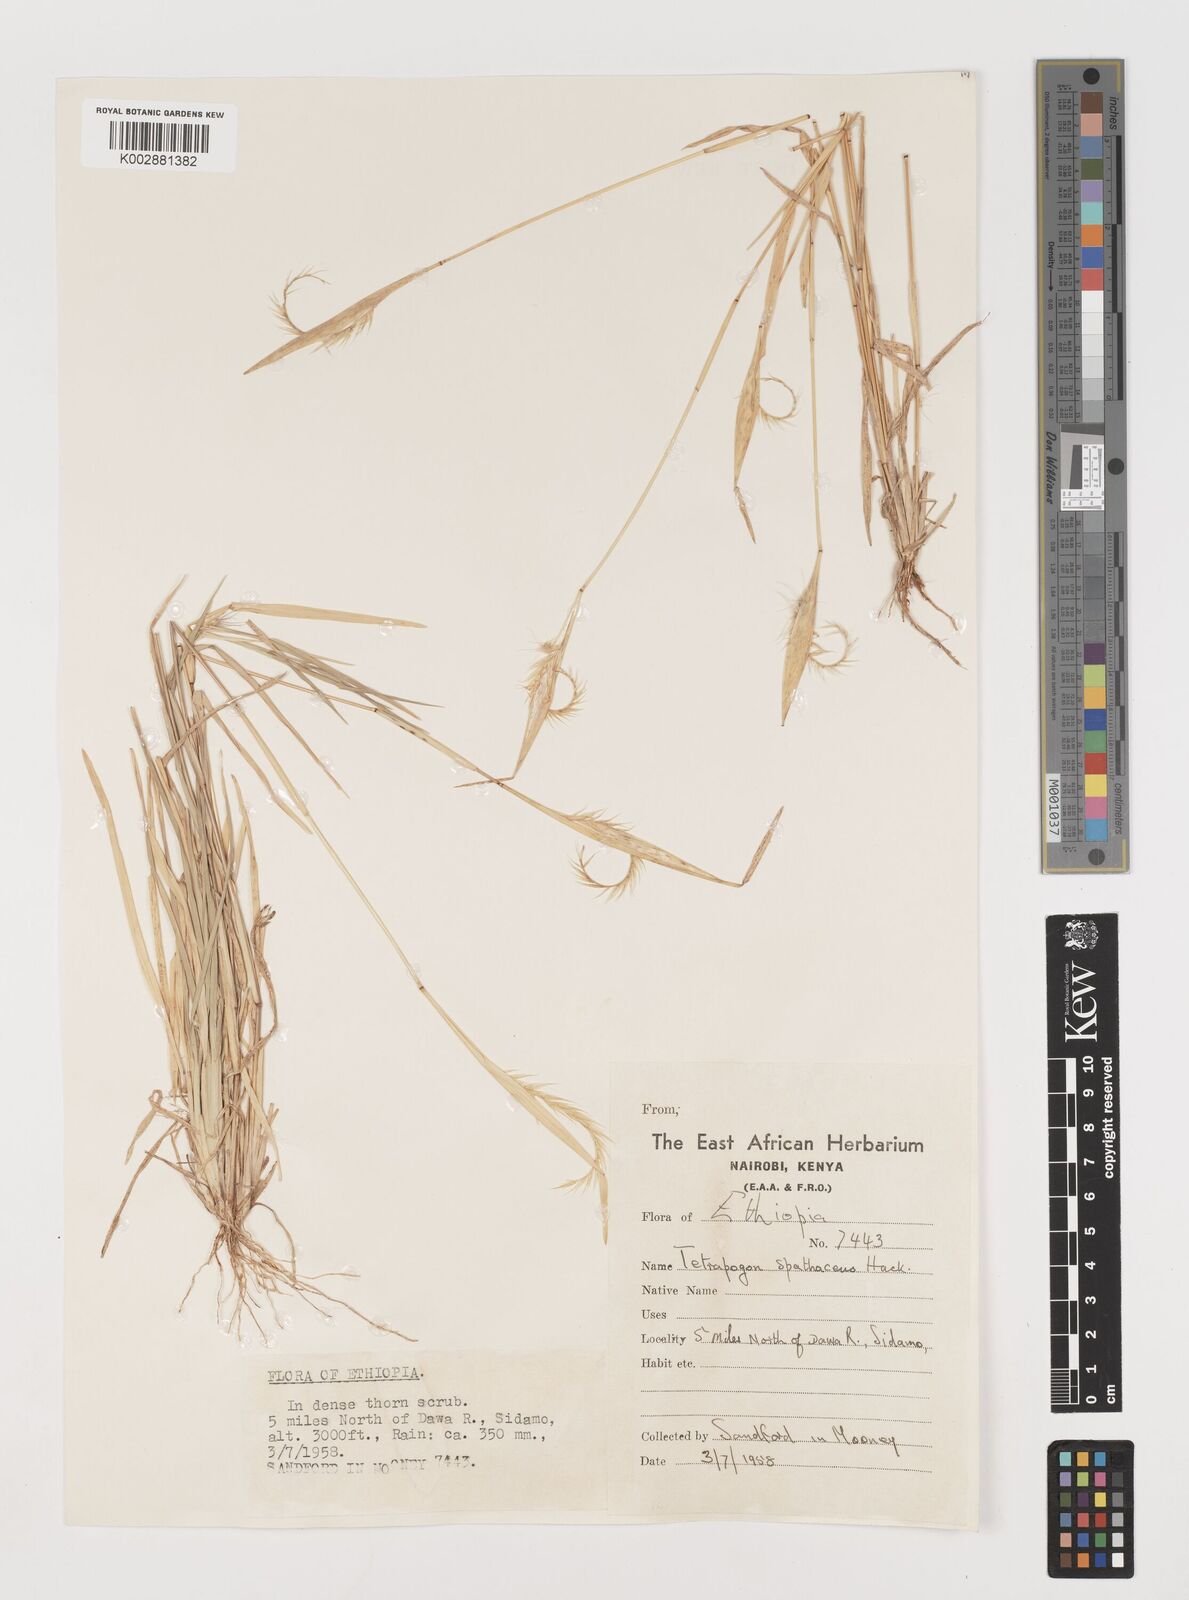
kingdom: Plantae
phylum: Tracheophyta
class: Liliopsida
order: Poales
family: Poaceae
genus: Tetrapogon
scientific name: Tetrapogon cenchriformis
